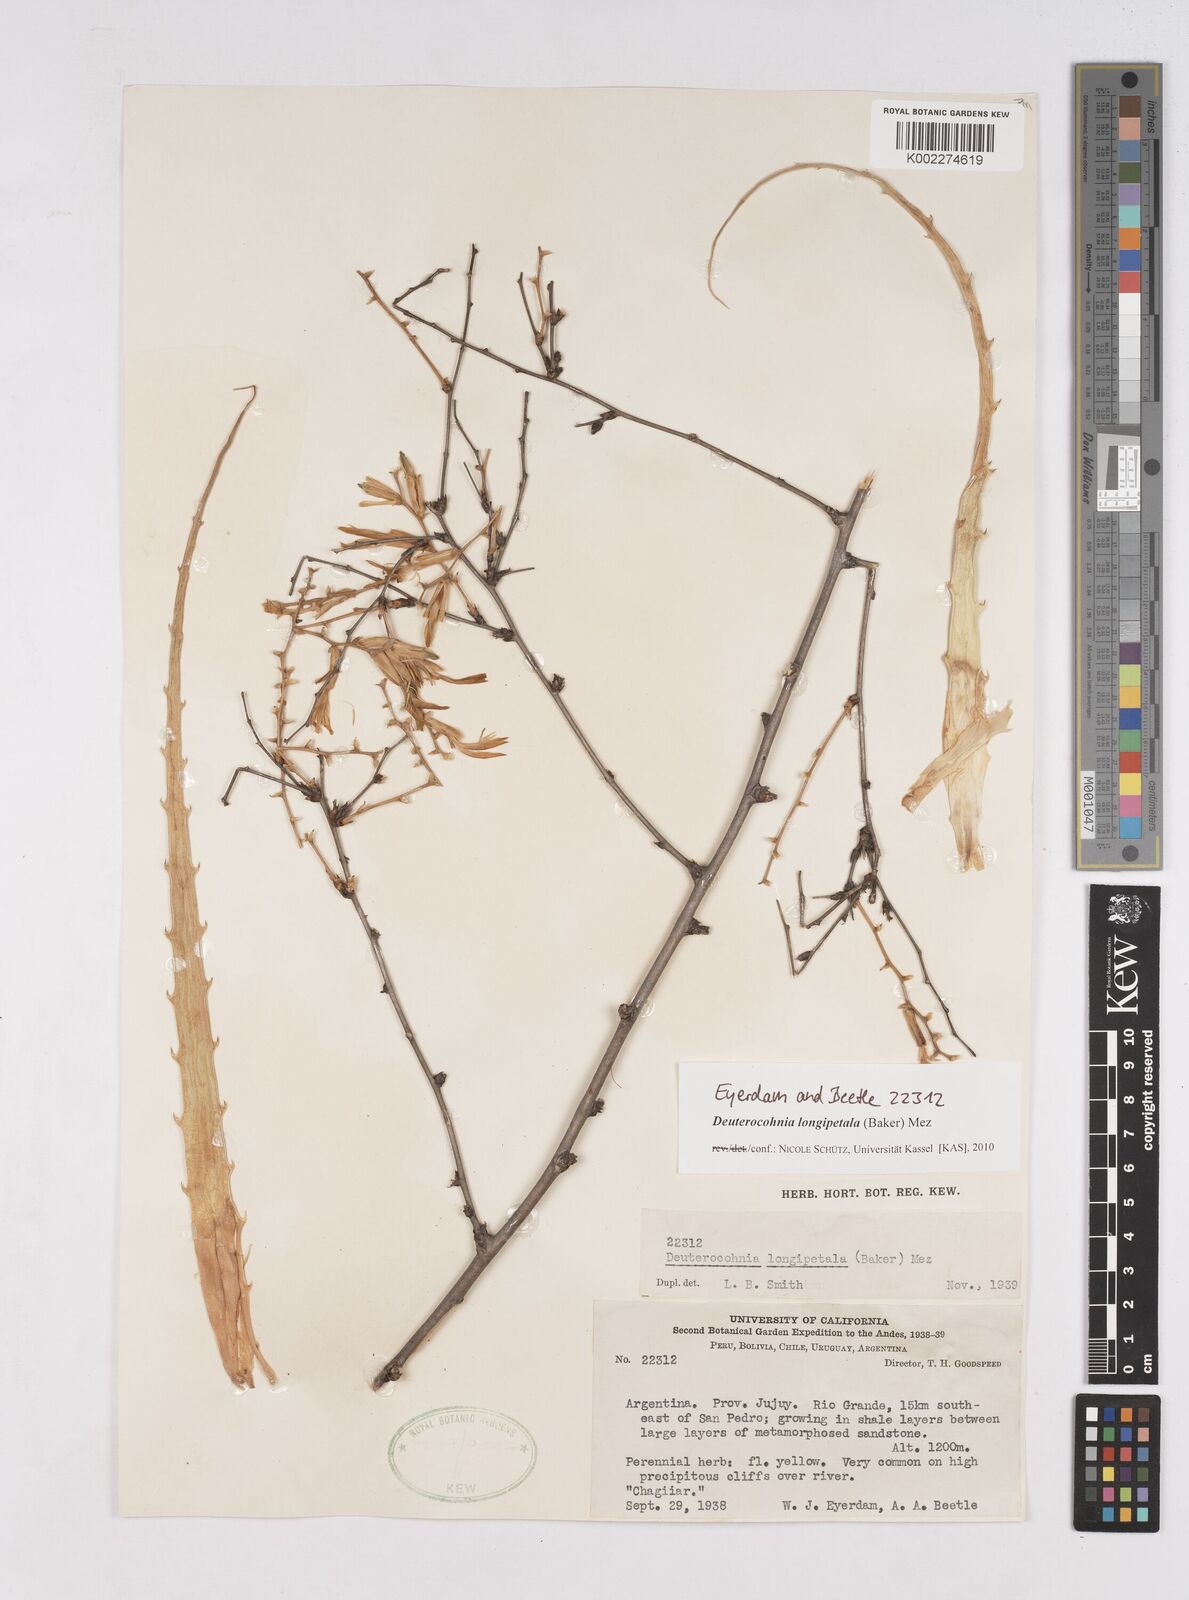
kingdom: Plantae
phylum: Tracheophyta
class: Liliopsida
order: Poales
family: Bromeliaceae
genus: Deuterocohnia
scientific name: Deuterocohnia longipetala
